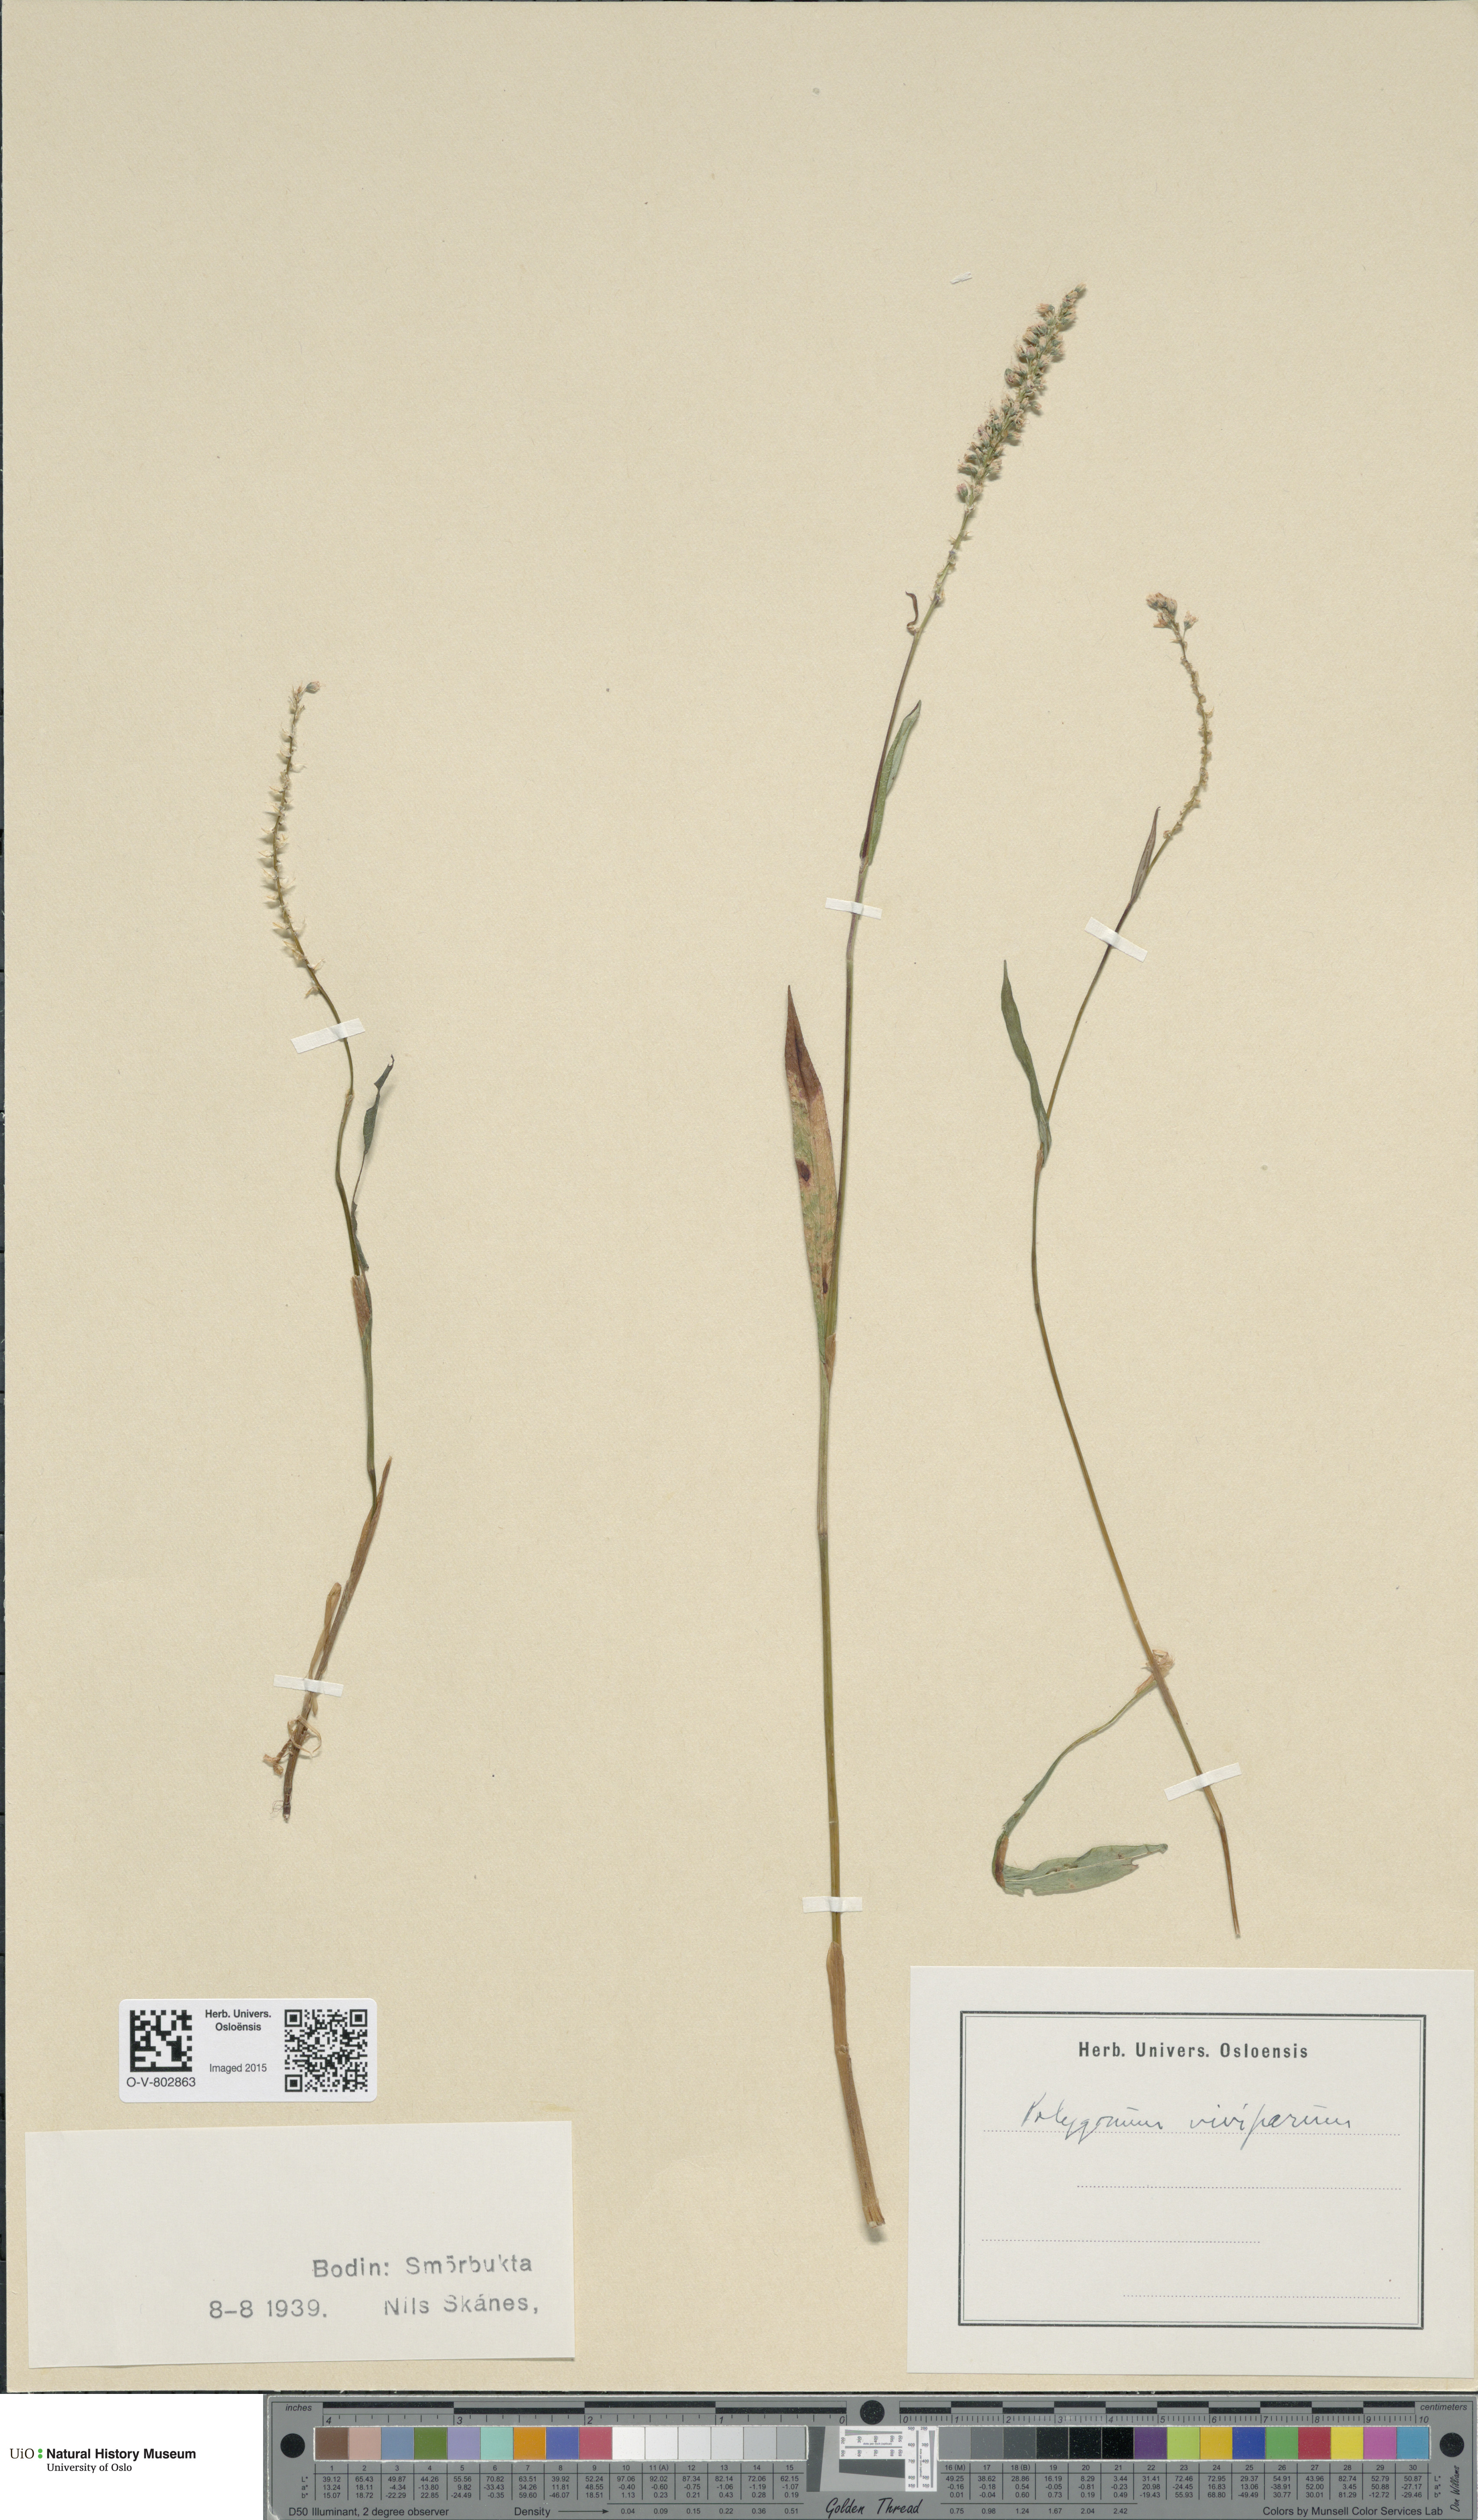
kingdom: Plantae
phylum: Tracheophyta
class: Magnoliopsida
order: Caryophyllales
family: Polygonaceae
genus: Bistorta
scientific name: Bistorta vivipara
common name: Alpine bistort
